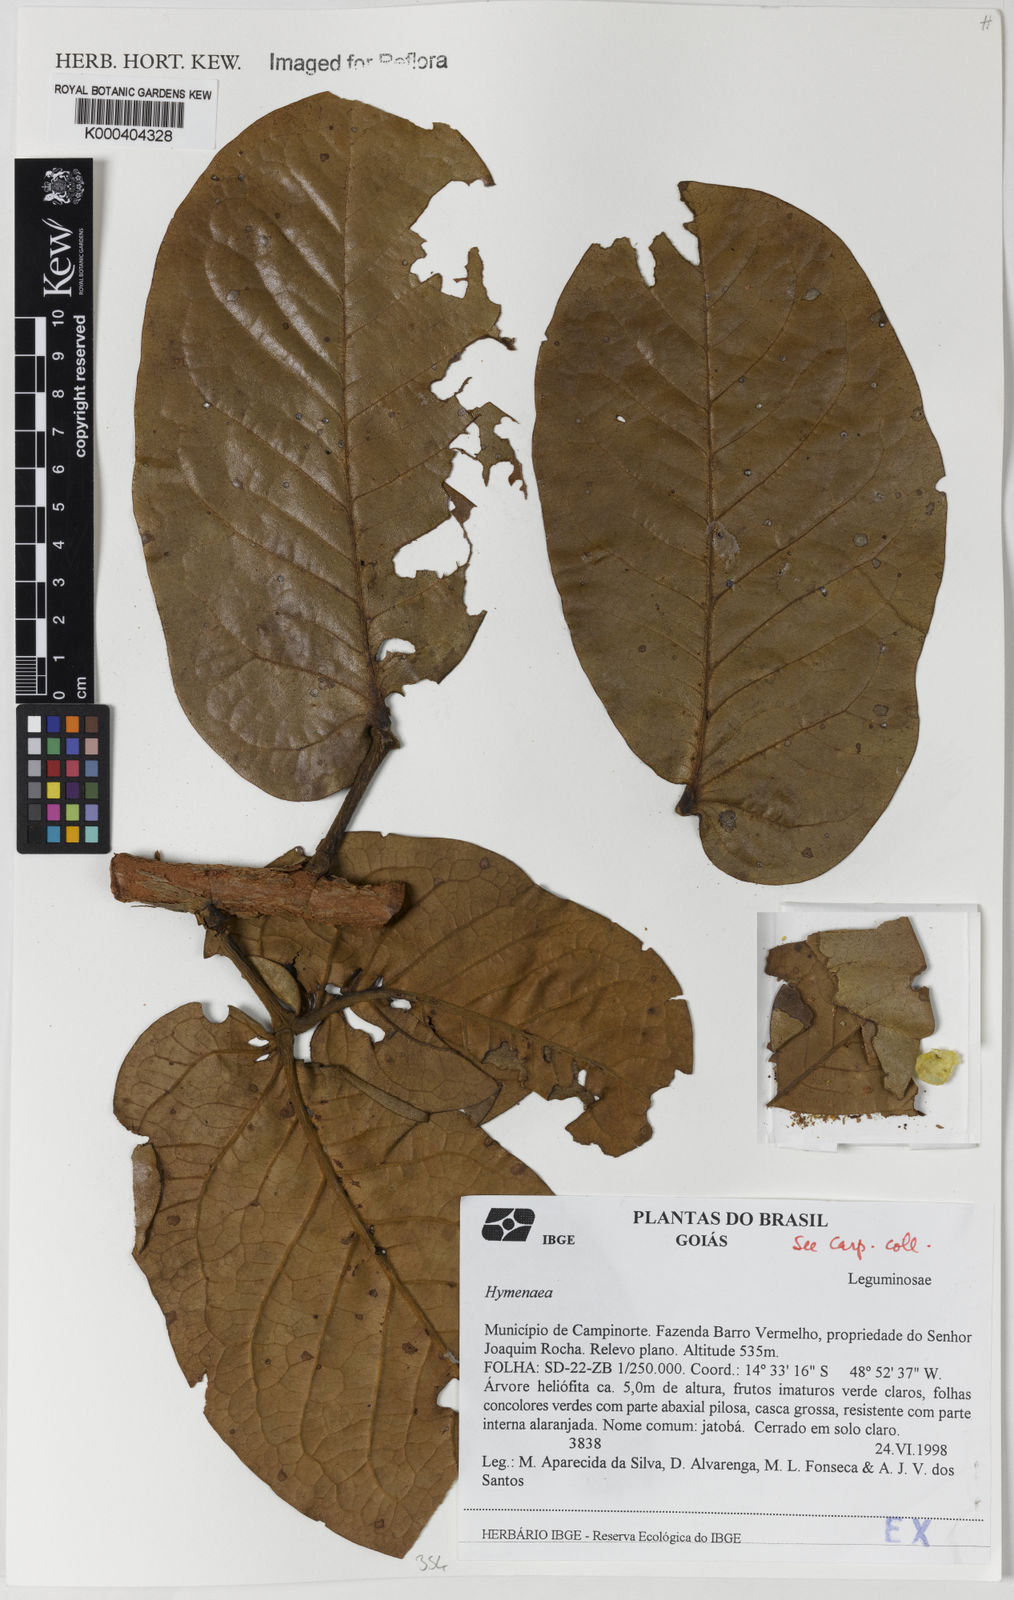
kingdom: Plantae
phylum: Tracheophyta
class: Magnoliopsida
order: Fabales
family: Fabaceae
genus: Hymenaea
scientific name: Hymenaea
